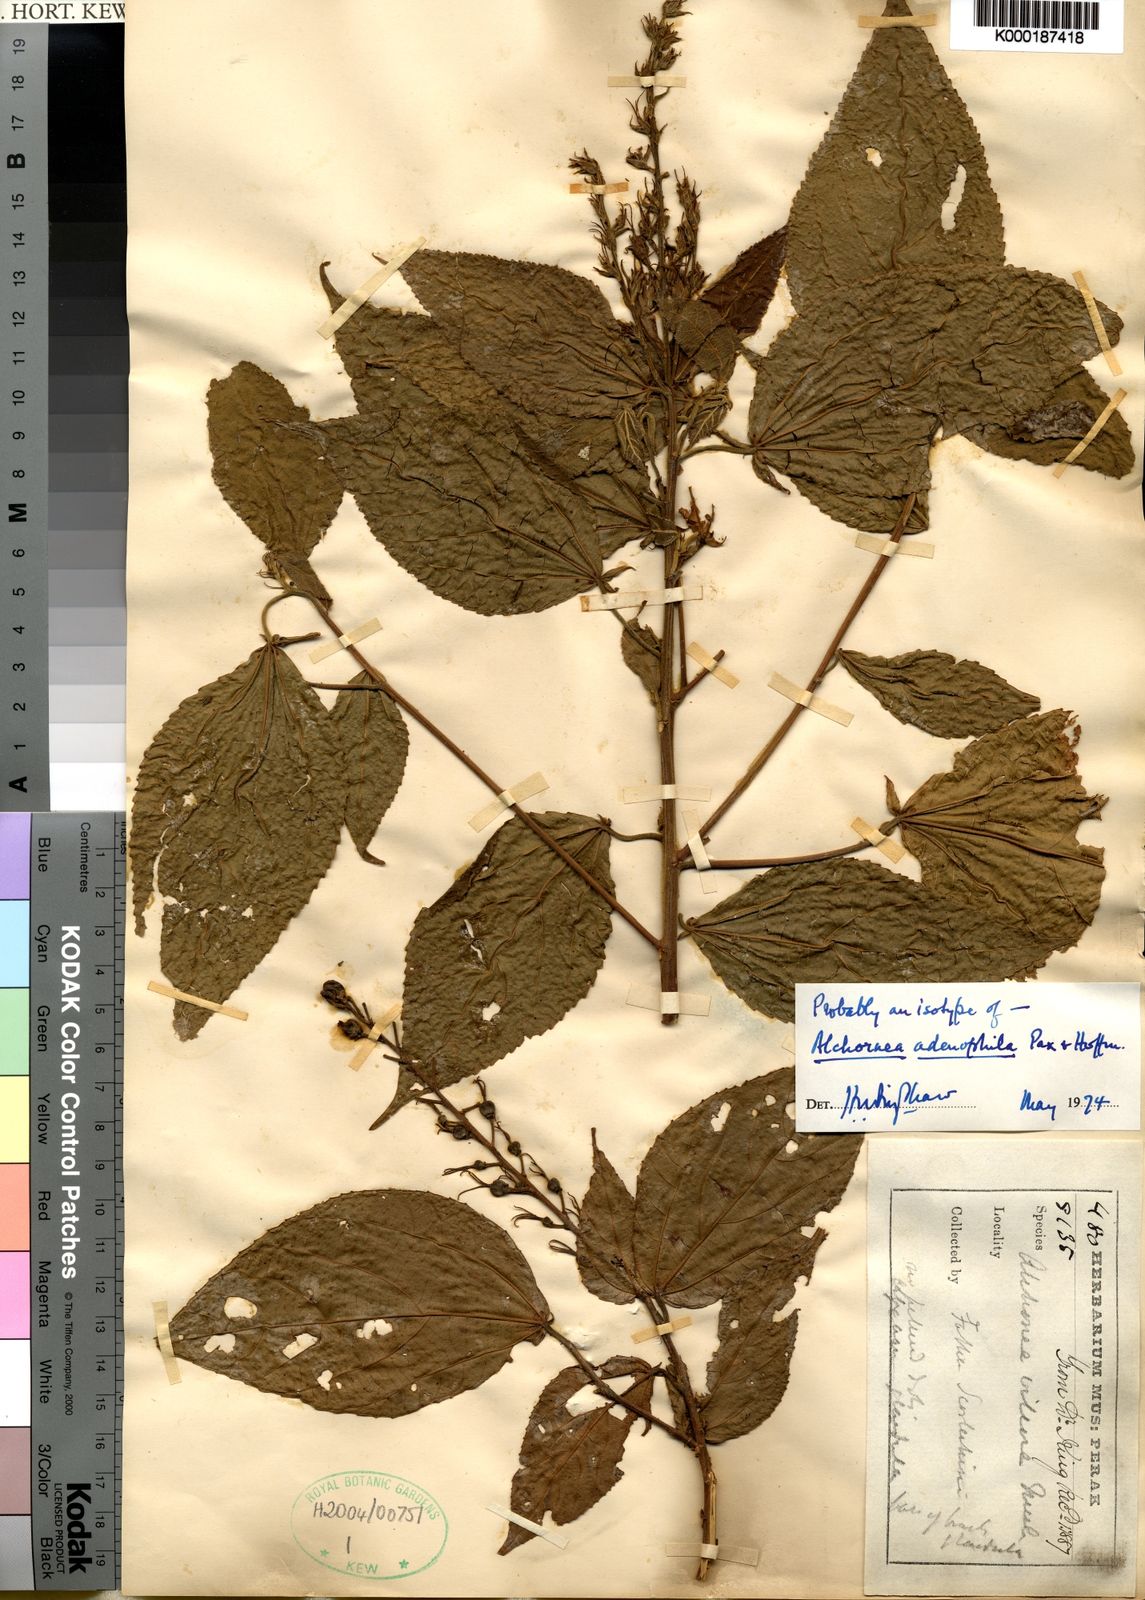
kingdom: Plantae
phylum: Tracheophyta
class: Magnoliopsida
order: Malpighiales
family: Euphorbiaceae
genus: Alchornea
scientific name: Alchornea
